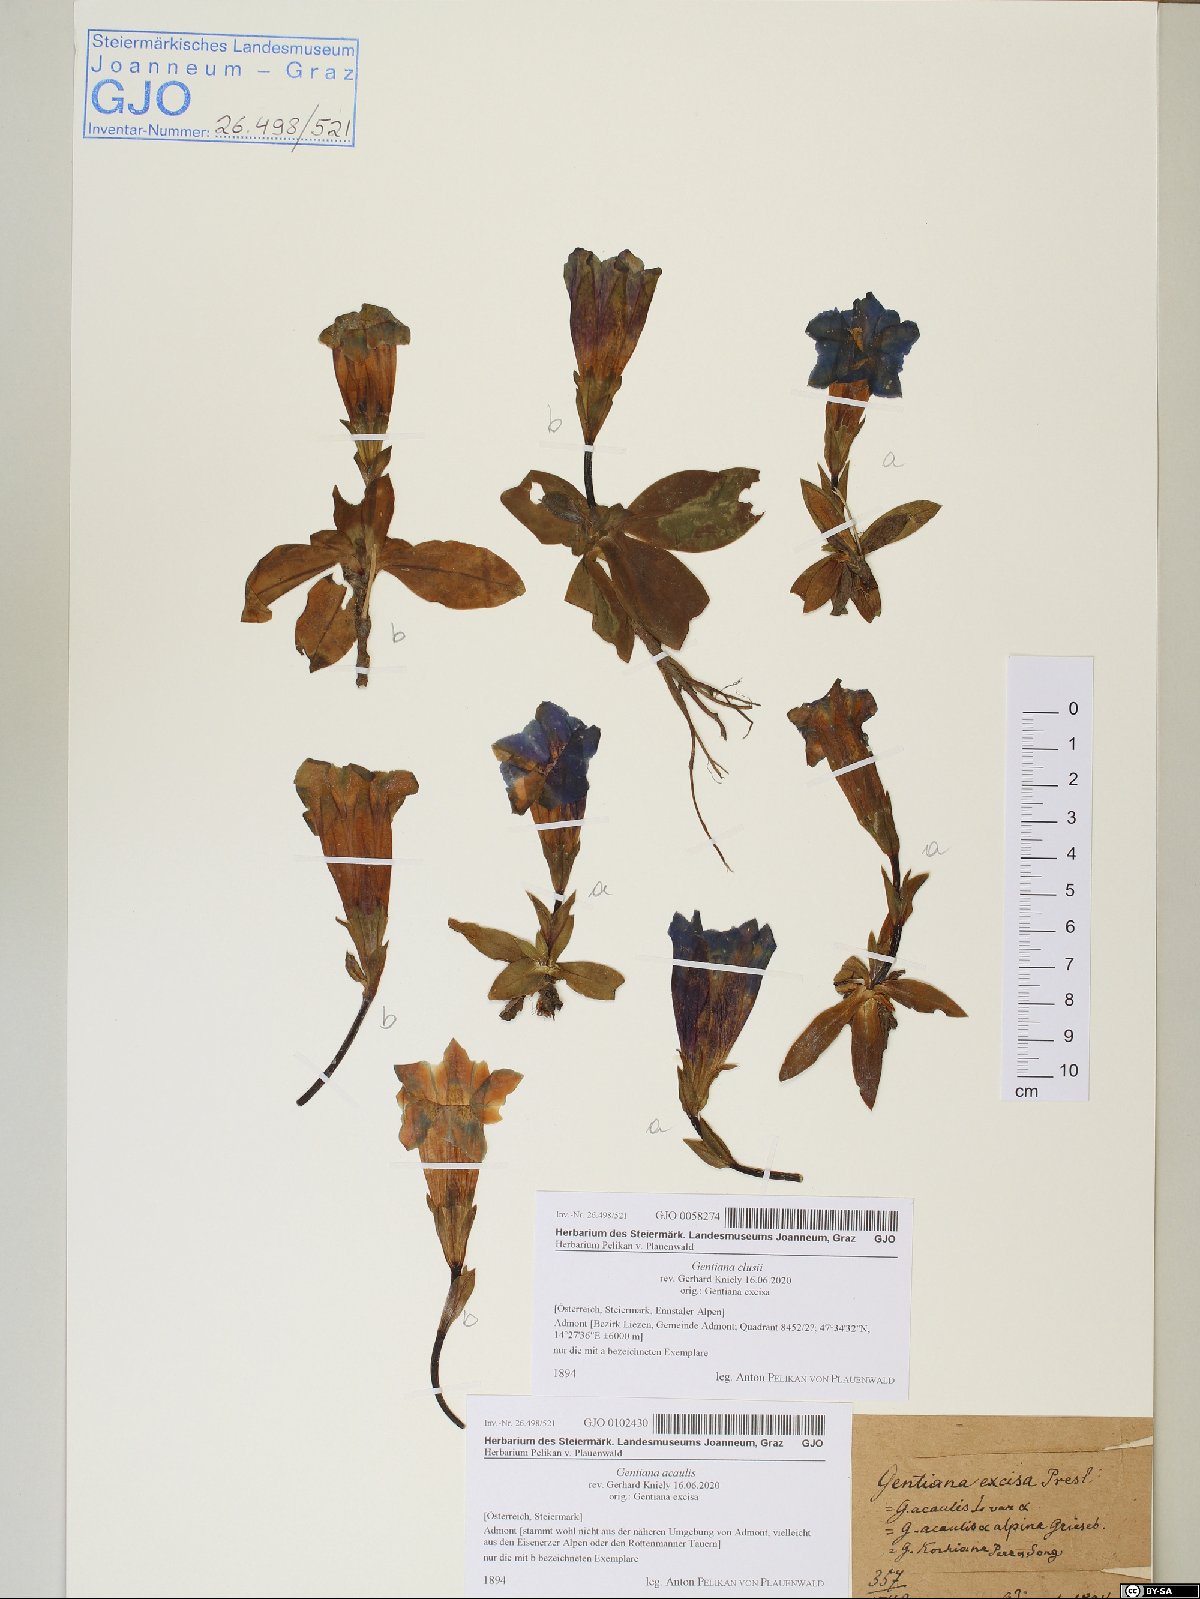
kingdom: Plantae
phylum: Tracheophyta
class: Magnoliopsida
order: Gentianales
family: Gentianaceae
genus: Gentiana
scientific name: Gentiana acaulis
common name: Trumpet gentian
